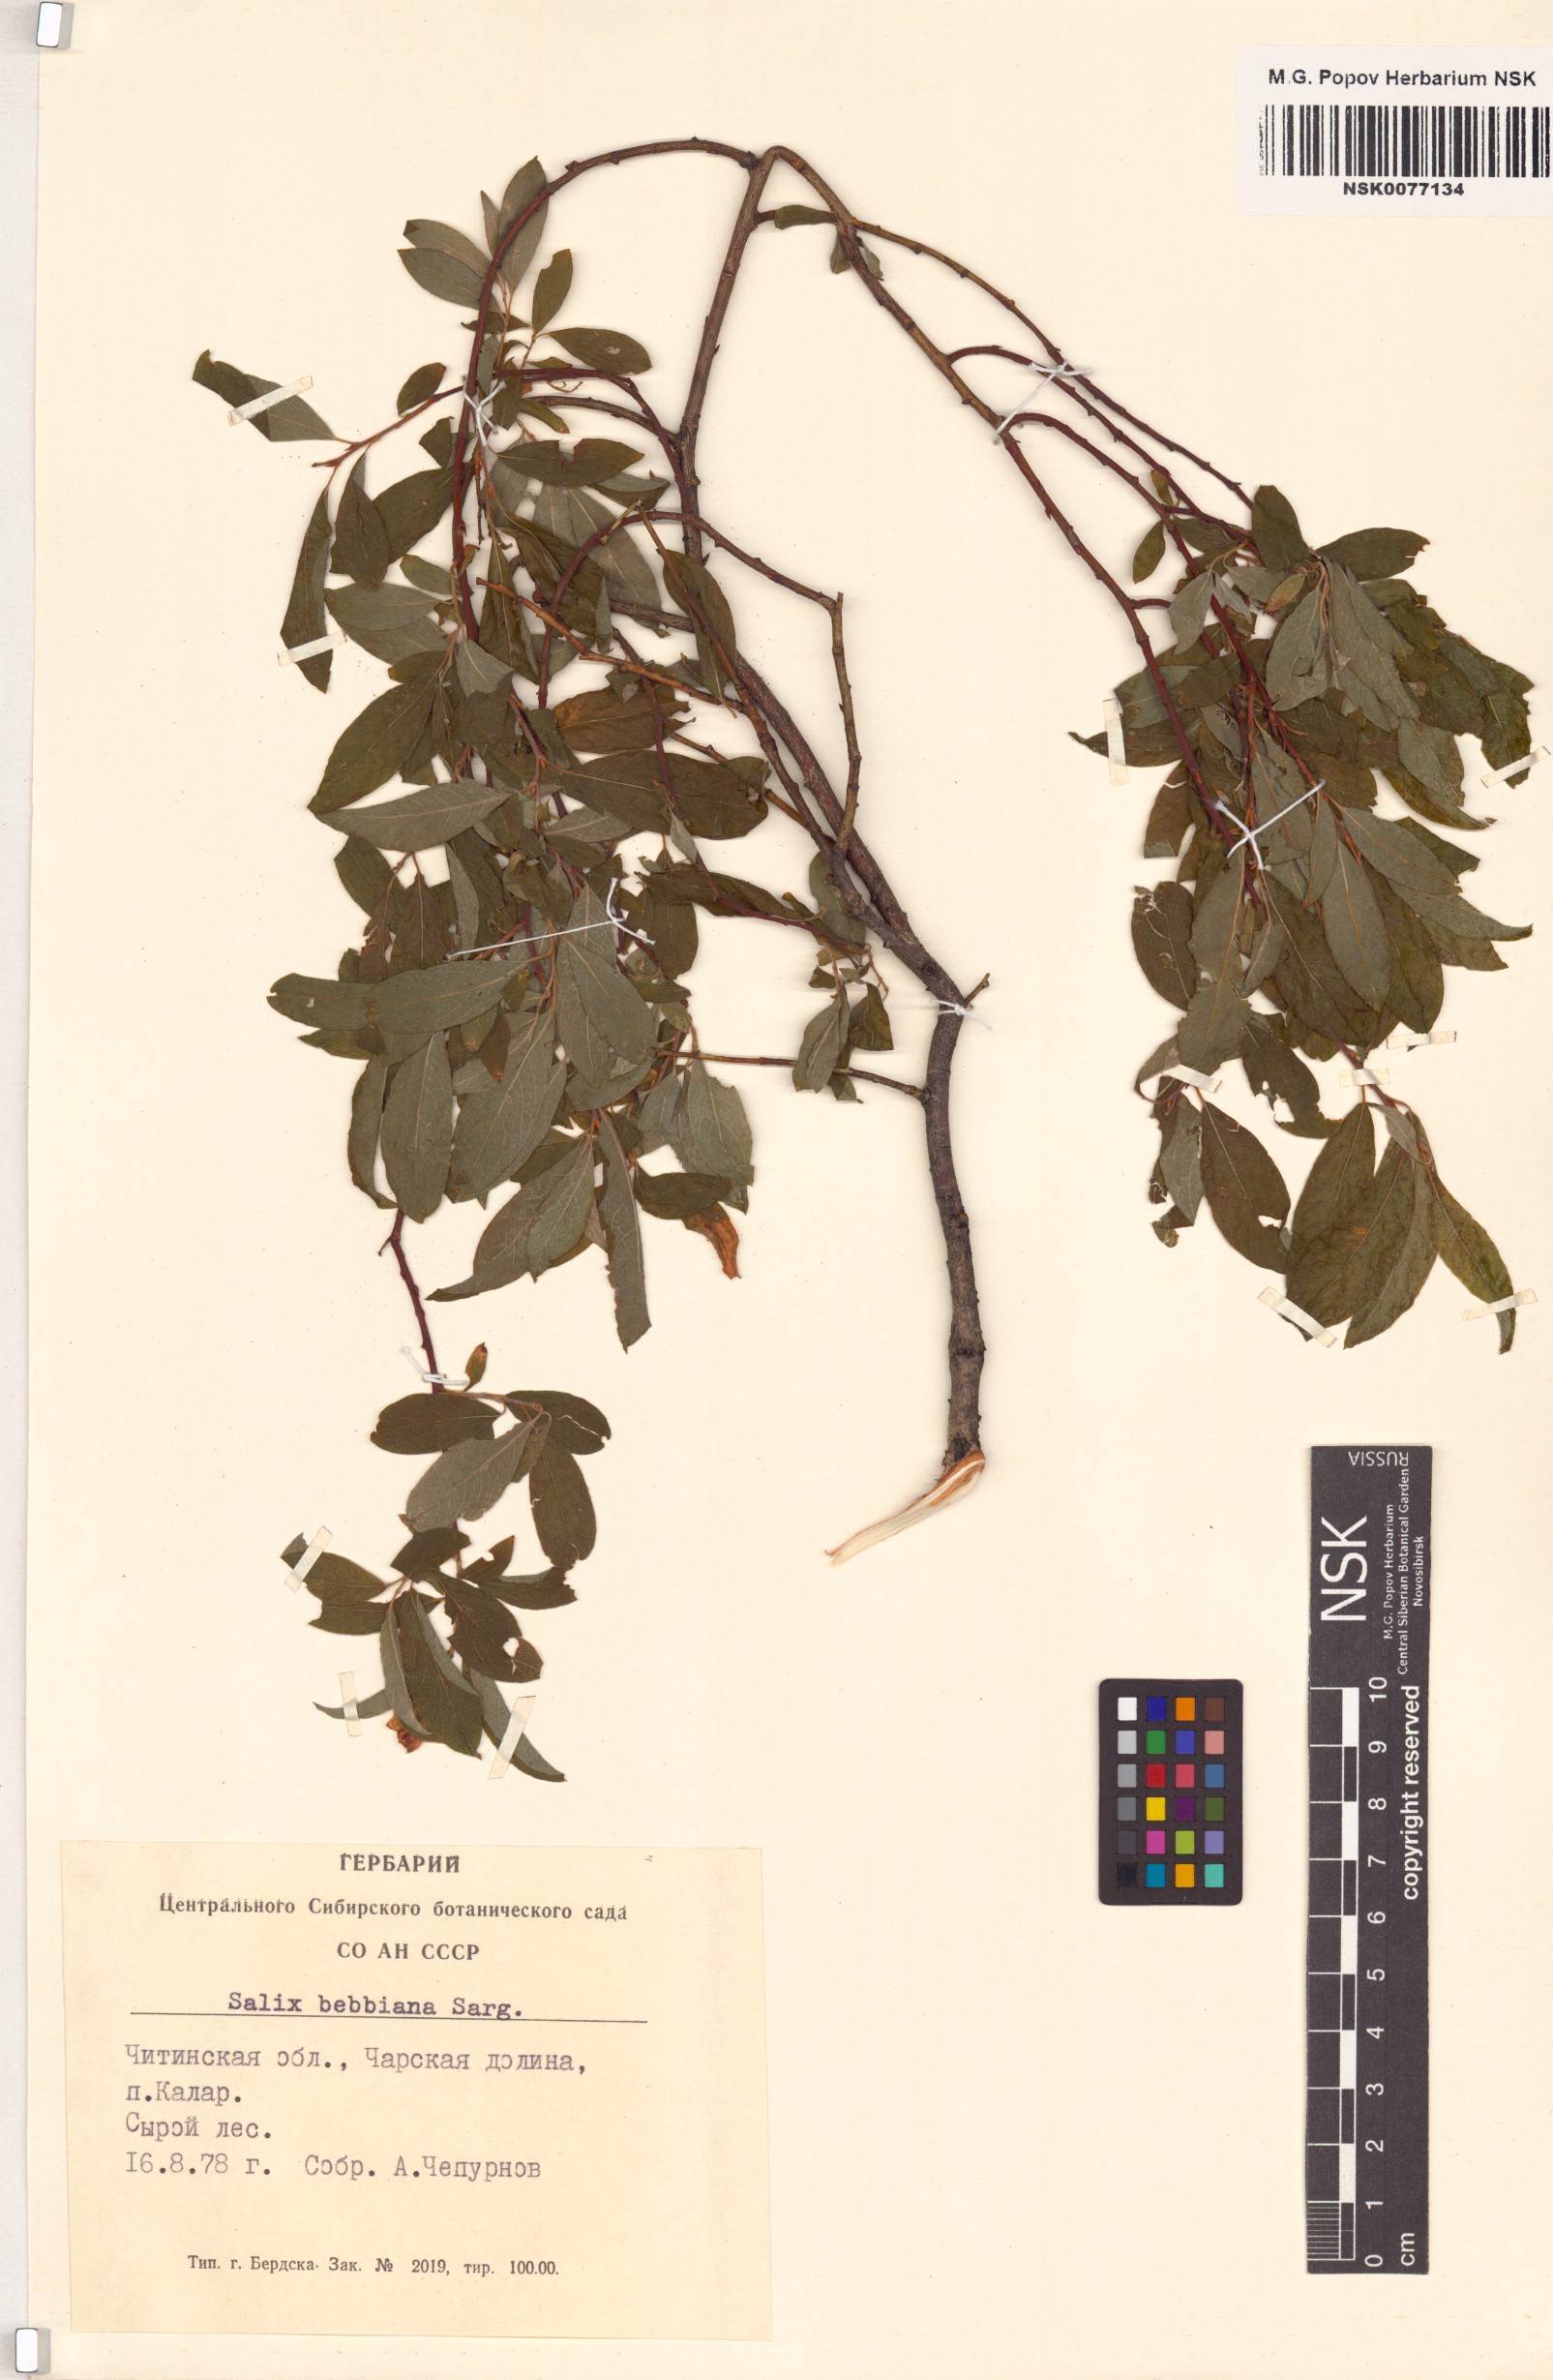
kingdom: Plantae
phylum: Tracheophyta
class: Magnoliopsida
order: Malpighiales
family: Salicaceae
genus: Salix
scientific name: Salix bebbiana
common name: Bebb's willow
